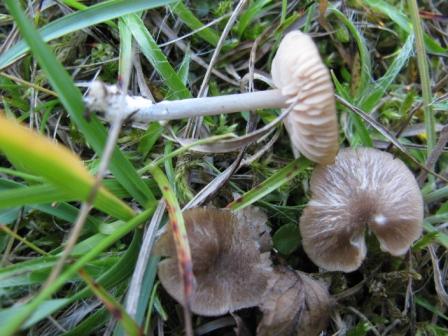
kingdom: Fungi
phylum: Basidiomycota
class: Agaricomycetes
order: Agaricales
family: Entolomataceae
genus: Entoloma
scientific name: Entoloma isborscanum
